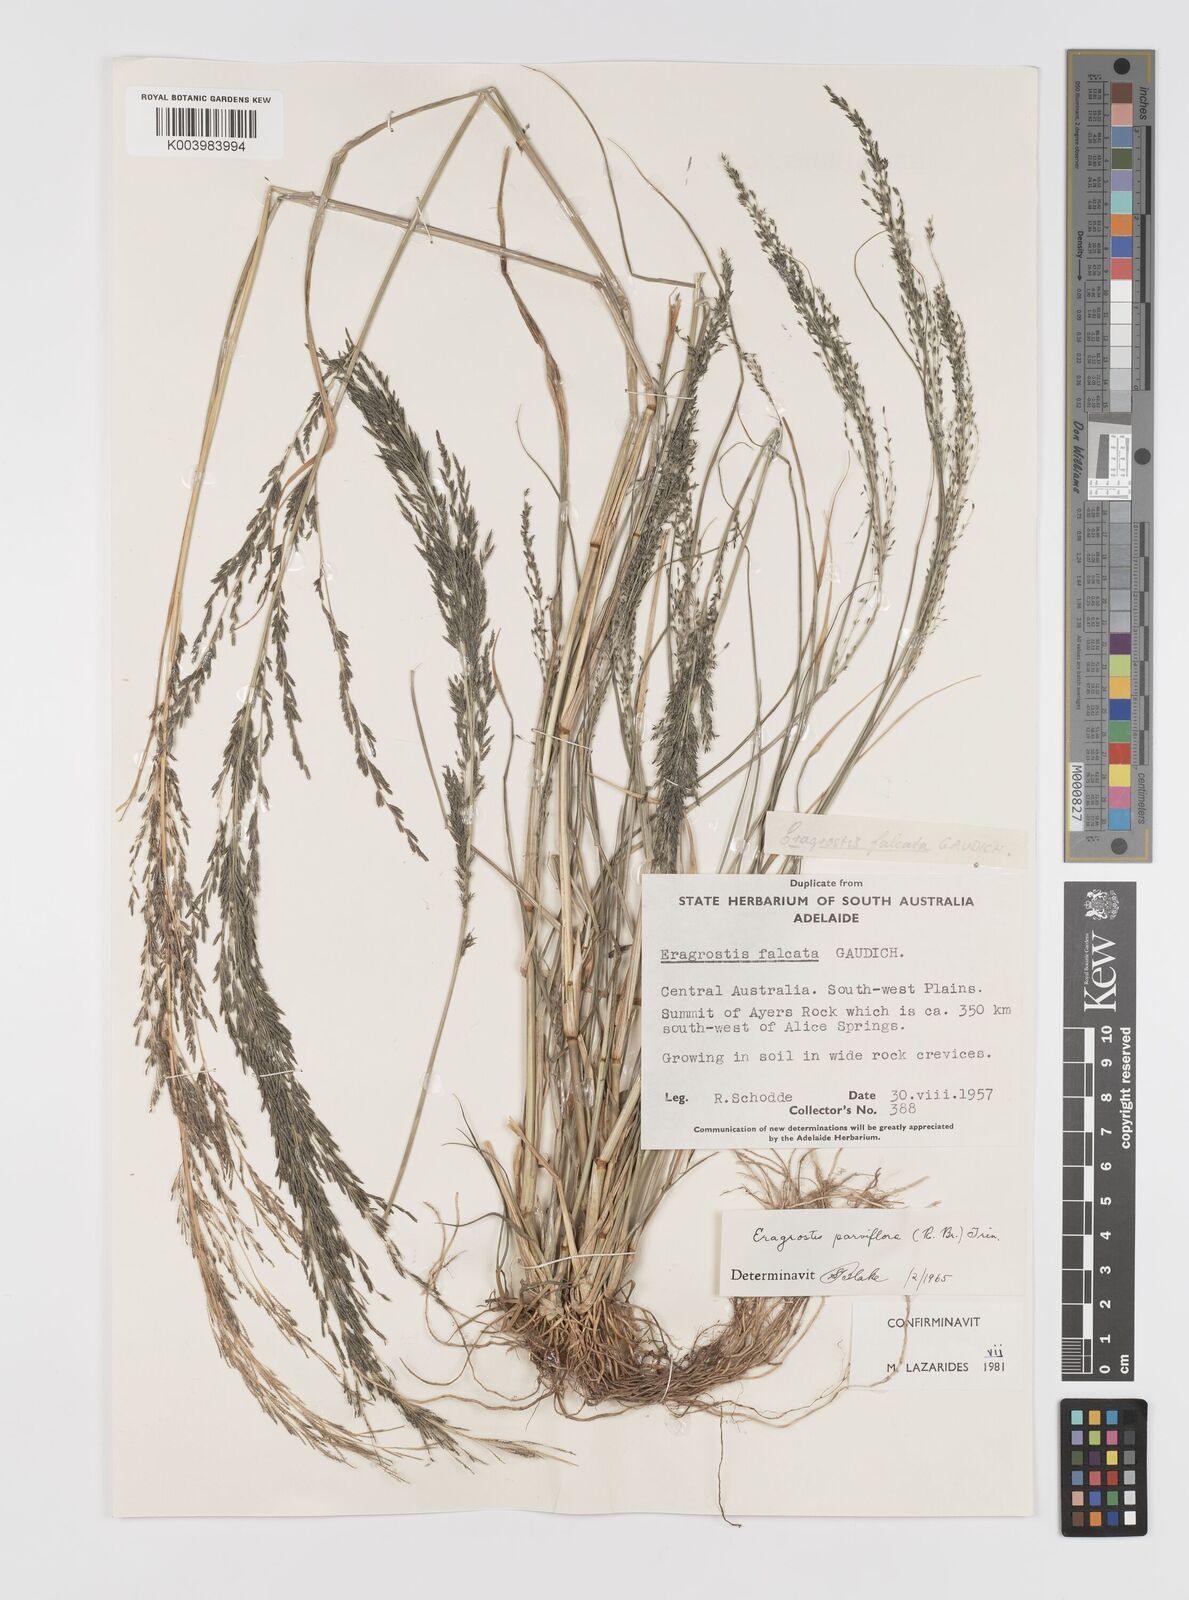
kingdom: Plantae
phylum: Tracheophyta
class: Liliopsida
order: Poales
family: Poaceae
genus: Eragrostis
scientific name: Eragrostis parviflora
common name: Weeping love-grass
